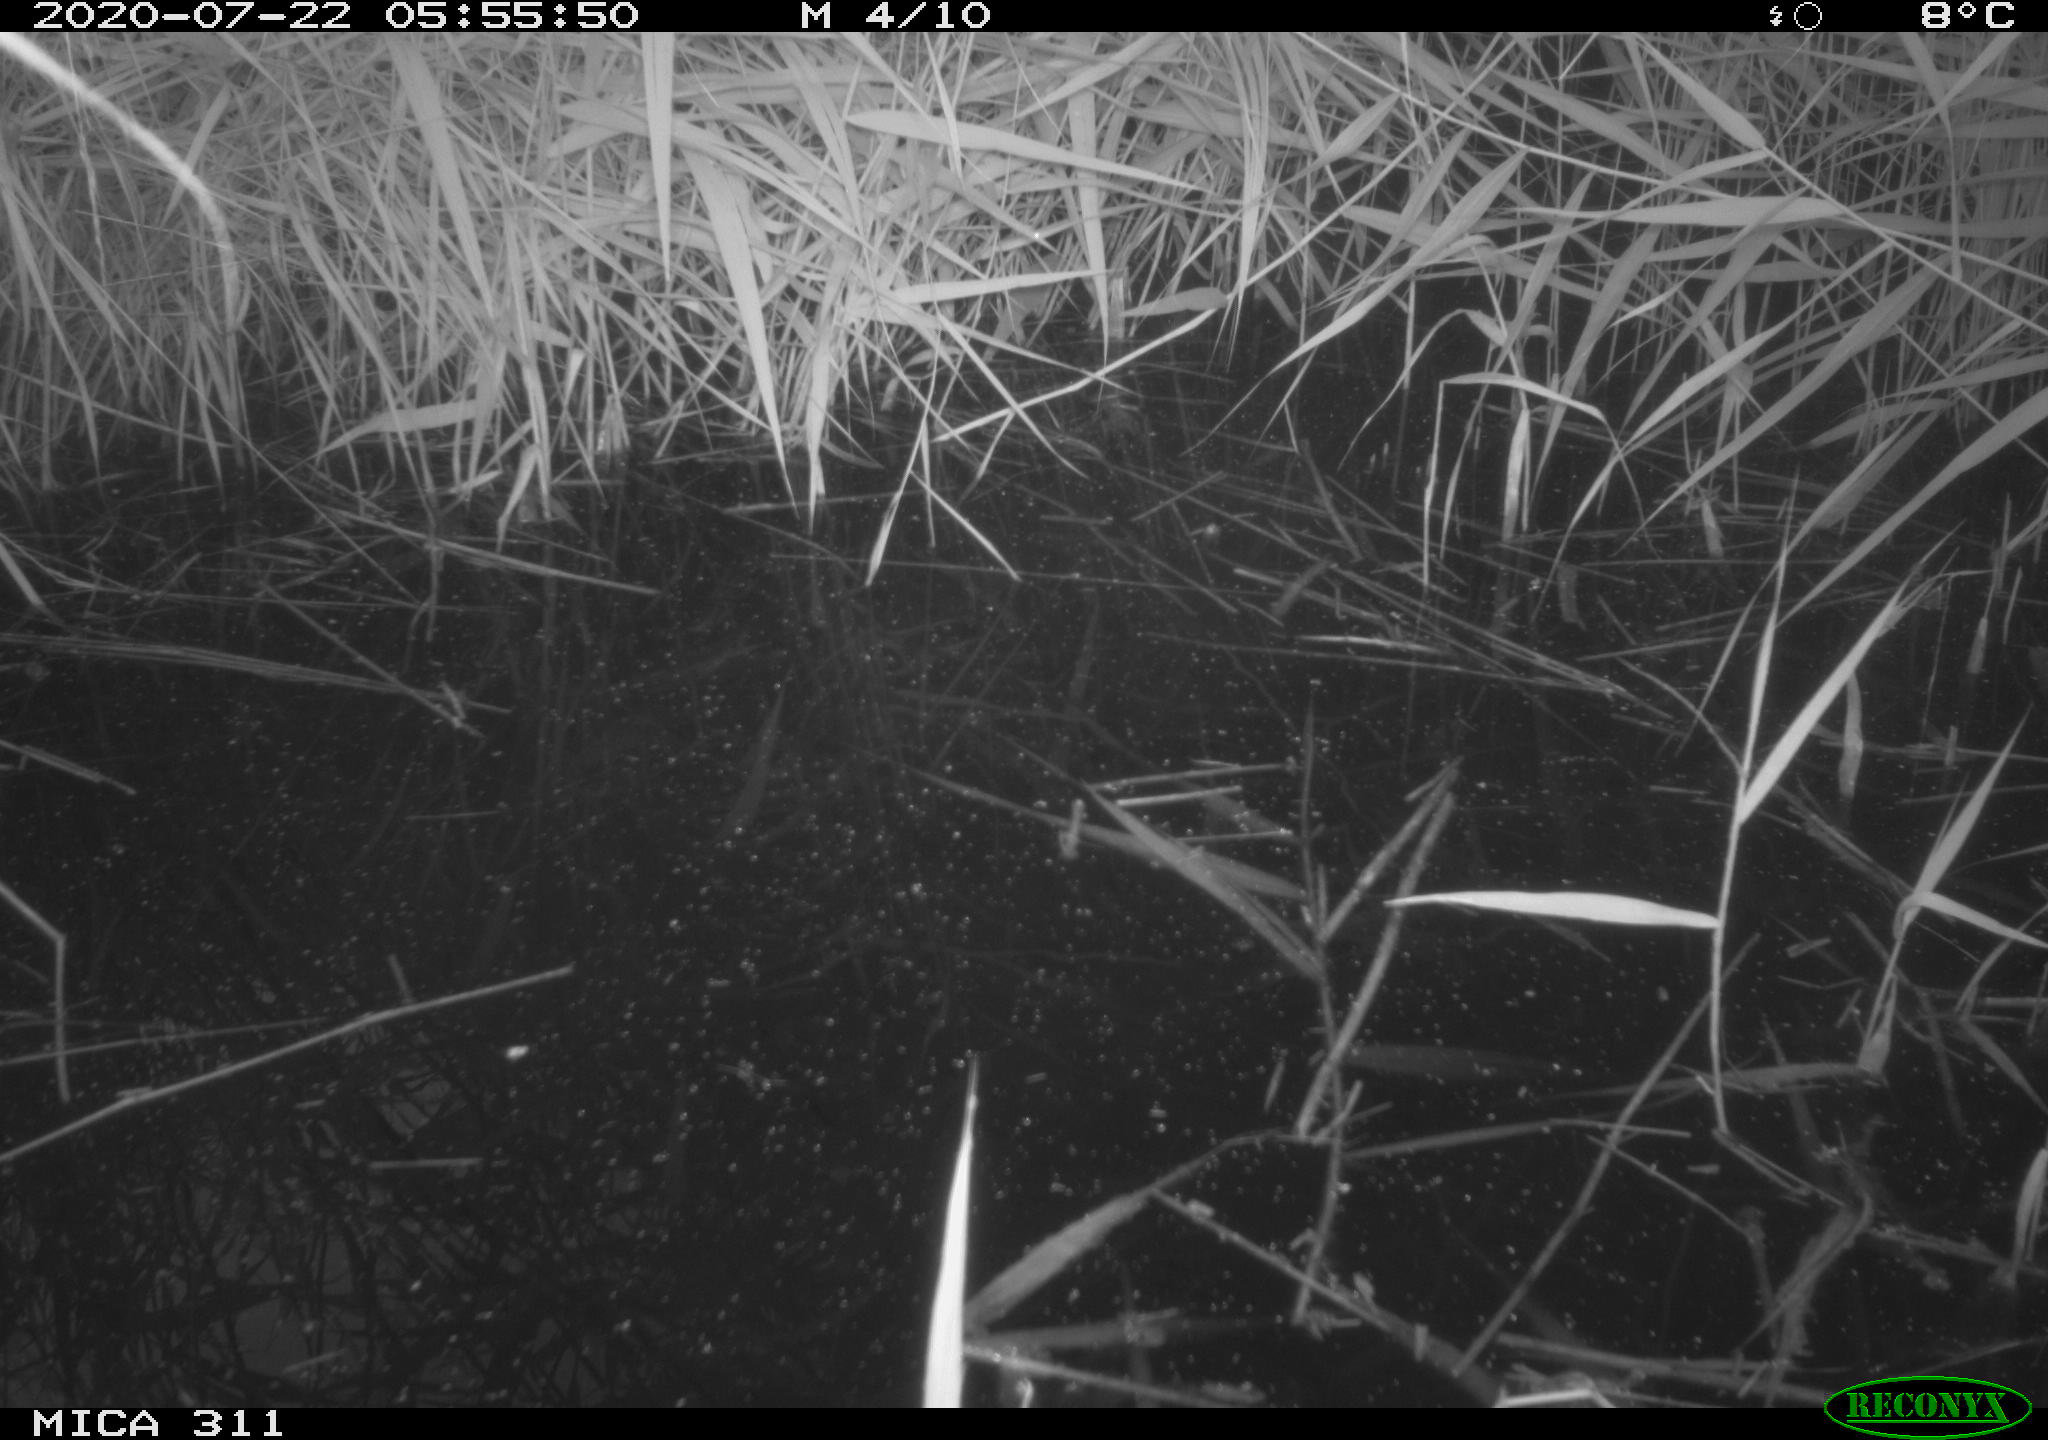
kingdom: Animalia
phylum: Chordata
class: Aves
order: Anseriformes
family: Anatidae
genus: Anas
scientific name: Anas platyrhynchos
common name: Mallard
